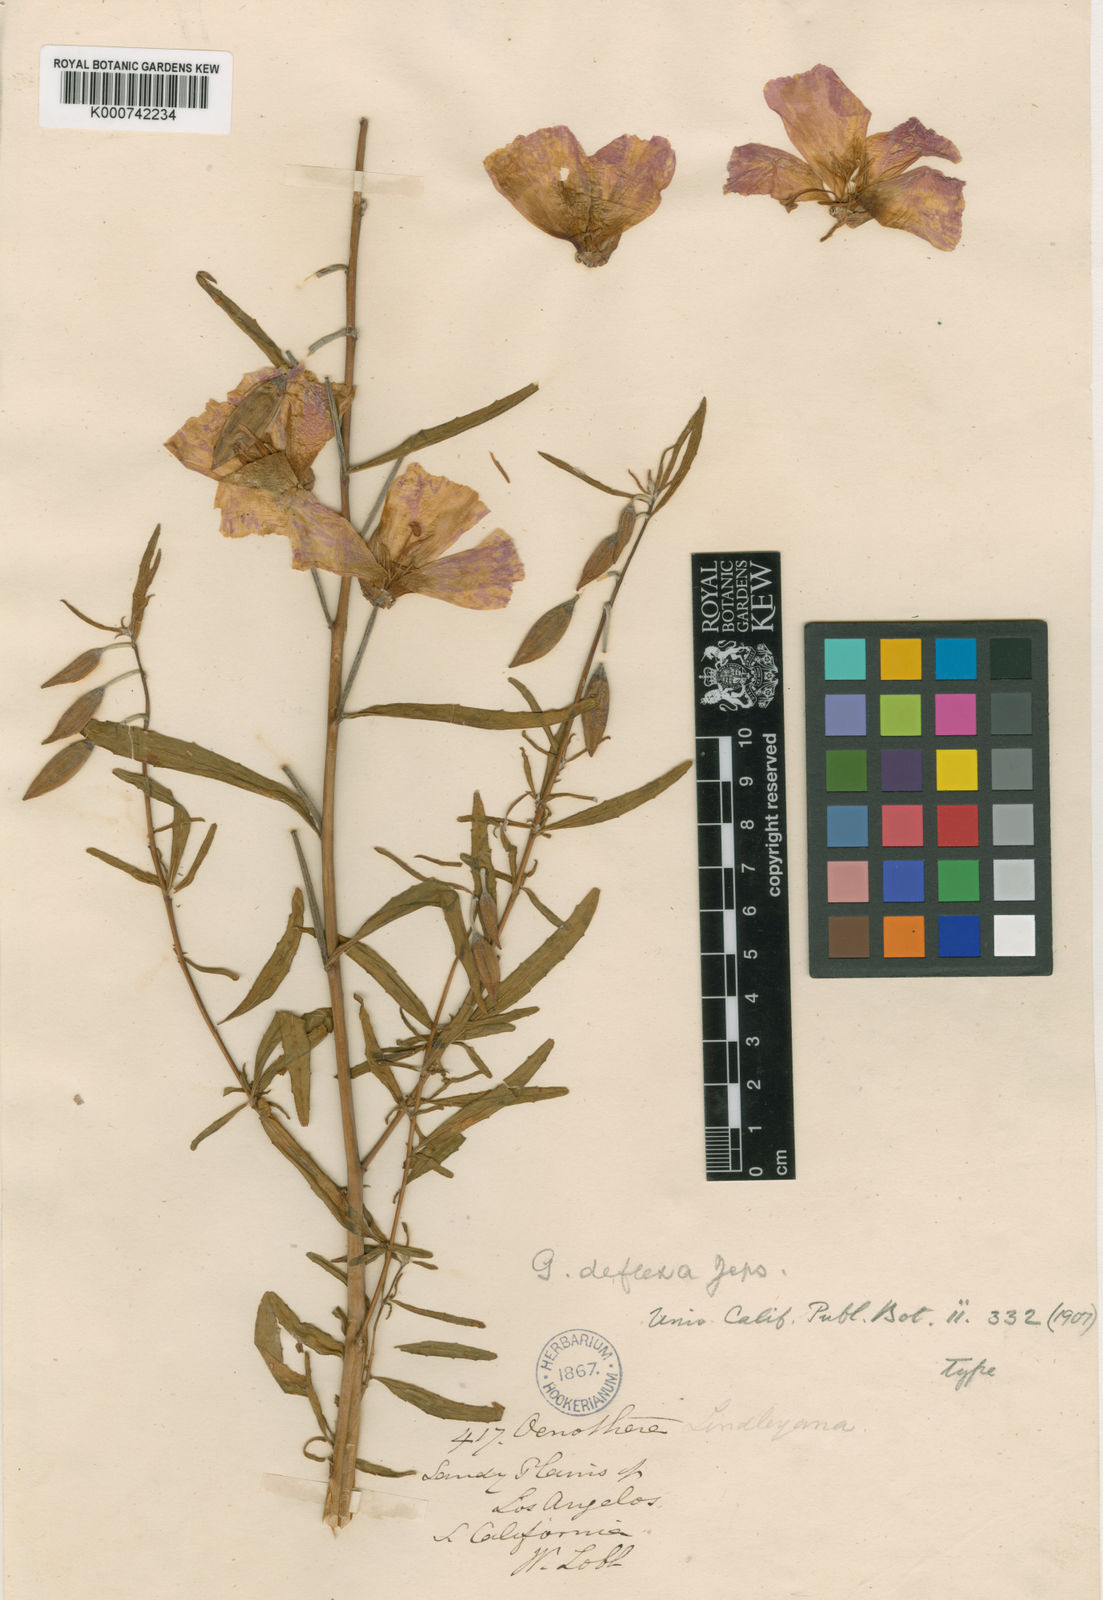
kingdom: Plantae
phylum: Tracheophyta
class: Magnoliopsida
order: Myrtales
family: Onagraceae
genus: Clarkia
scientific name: Clarkia bottae
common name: Punch-bowl godetia
